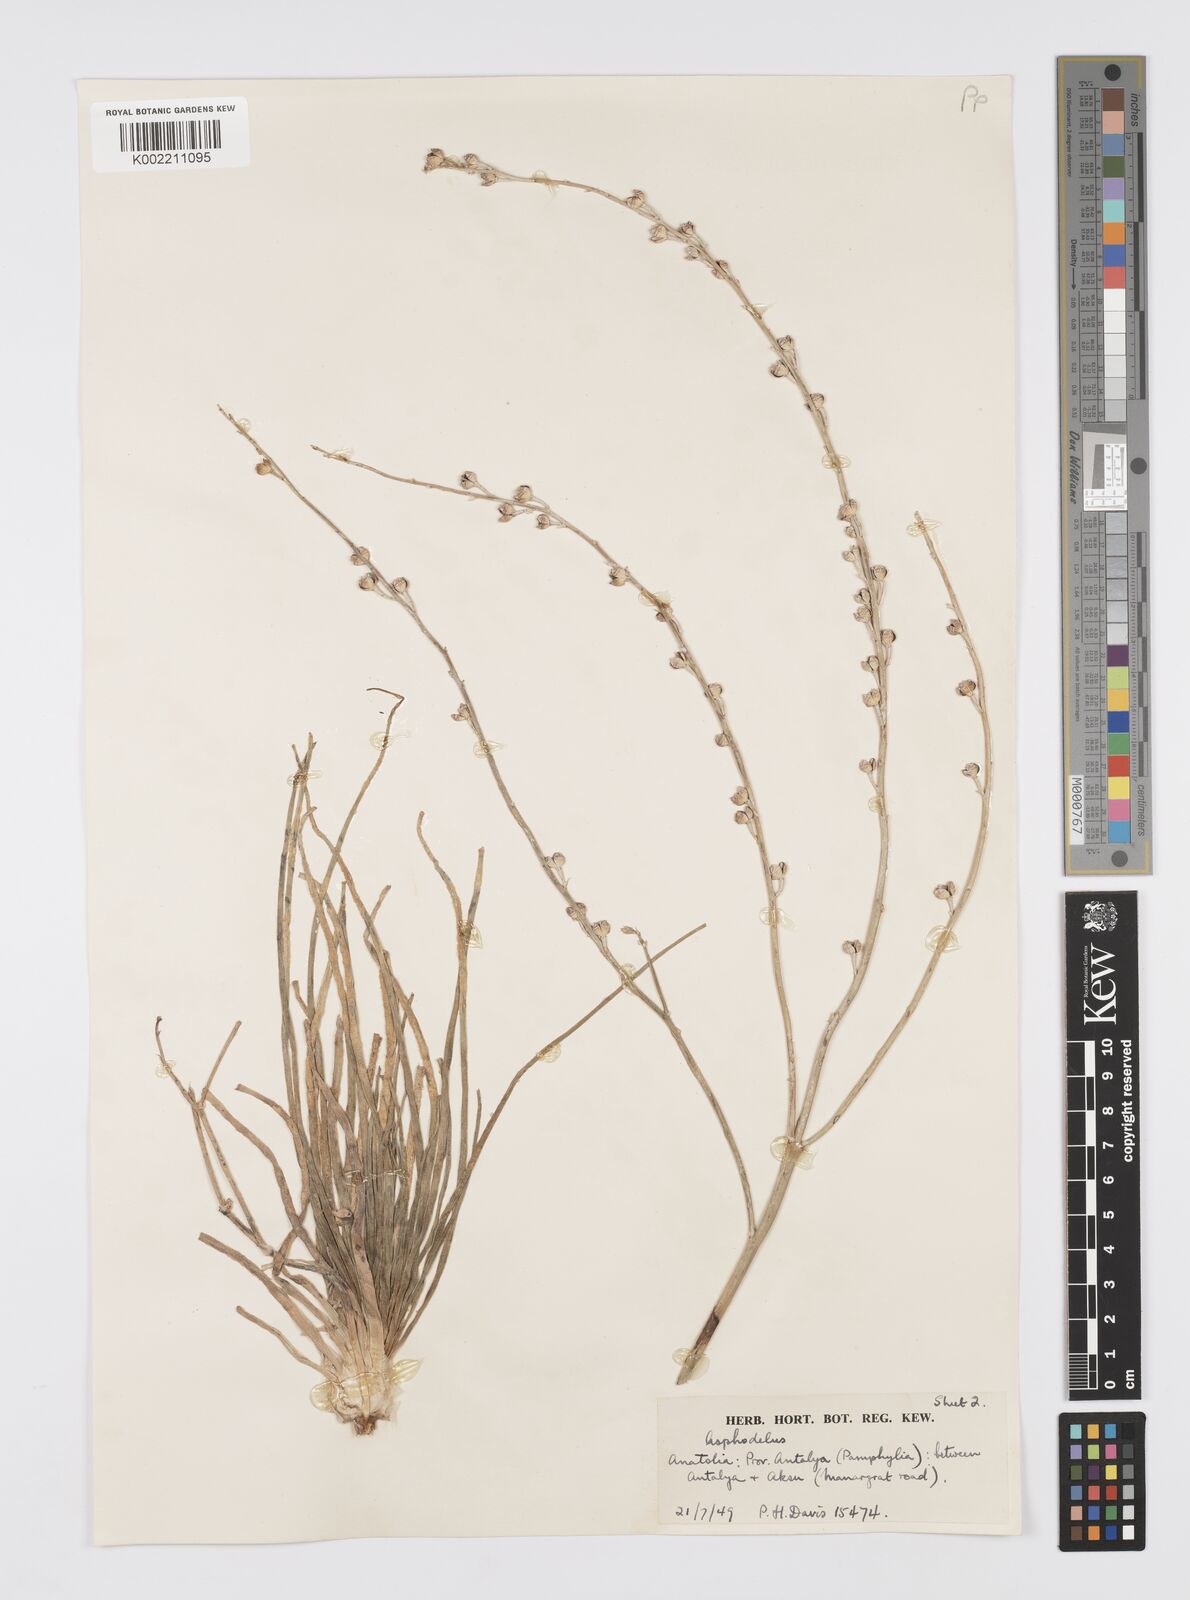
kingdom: Plantae
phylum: Tracheophyta
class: Liliopsida
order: Asparagales
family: Asphodelaceae
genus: Asphodelus
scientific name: Asphodelus fistulosus
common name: Onionweed
